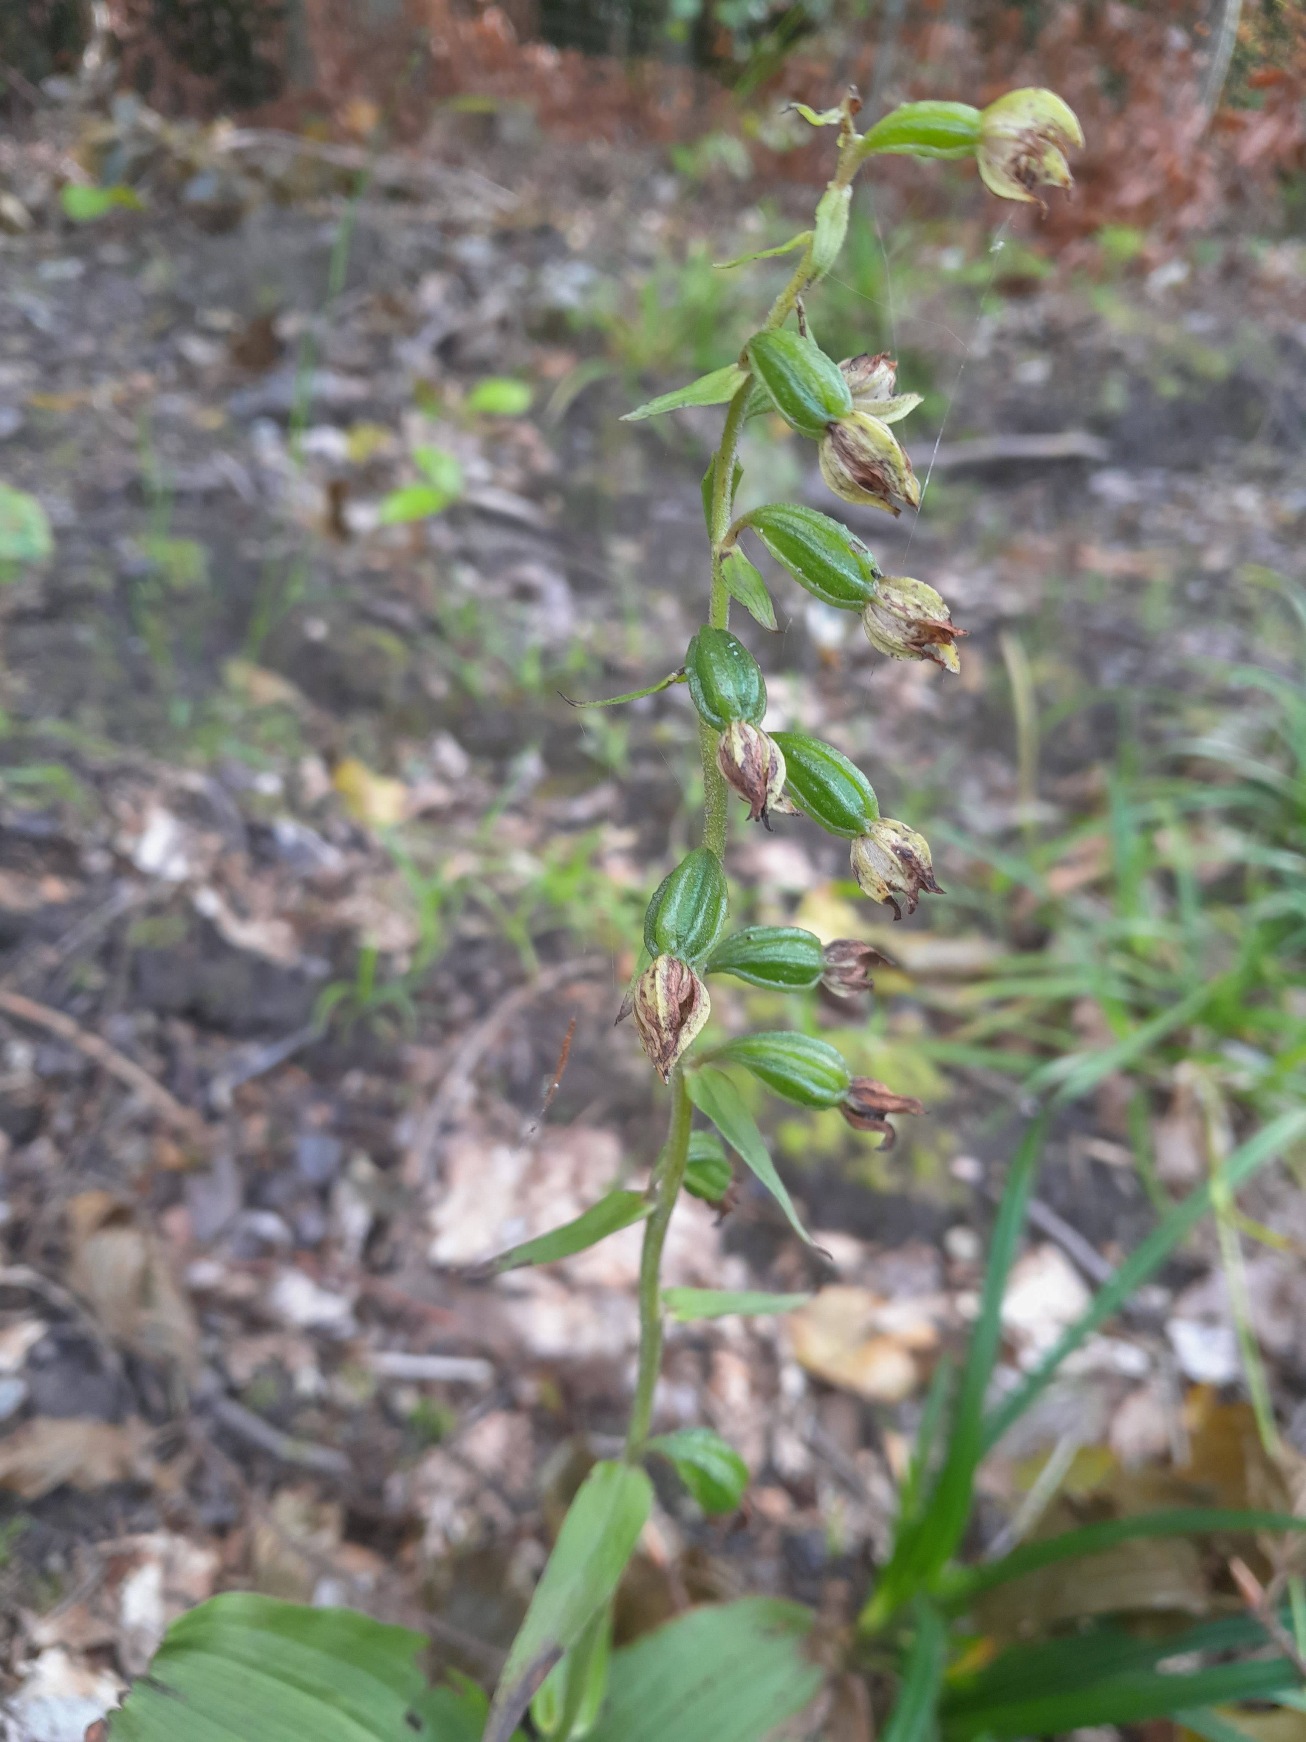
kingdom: Plantae
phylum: Tracheophyta
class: Liliopsida
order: Asparagales
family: Orchidaceae
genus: Epipactis
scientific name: Epipactis helleborine
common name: Skov-hullæbe
